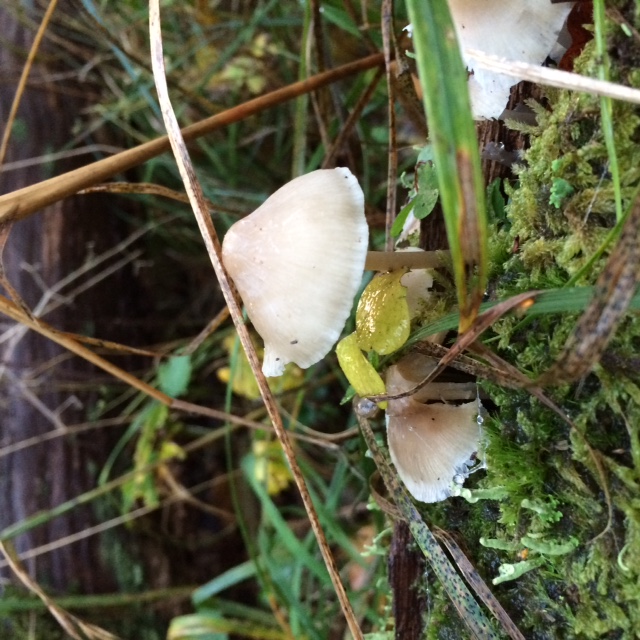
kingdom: Fungi
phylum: Basidiomycota
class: Agaricomycetes
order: Agaricales
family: Mycenaceae
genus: Mycena
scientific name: Mycena galericulata
